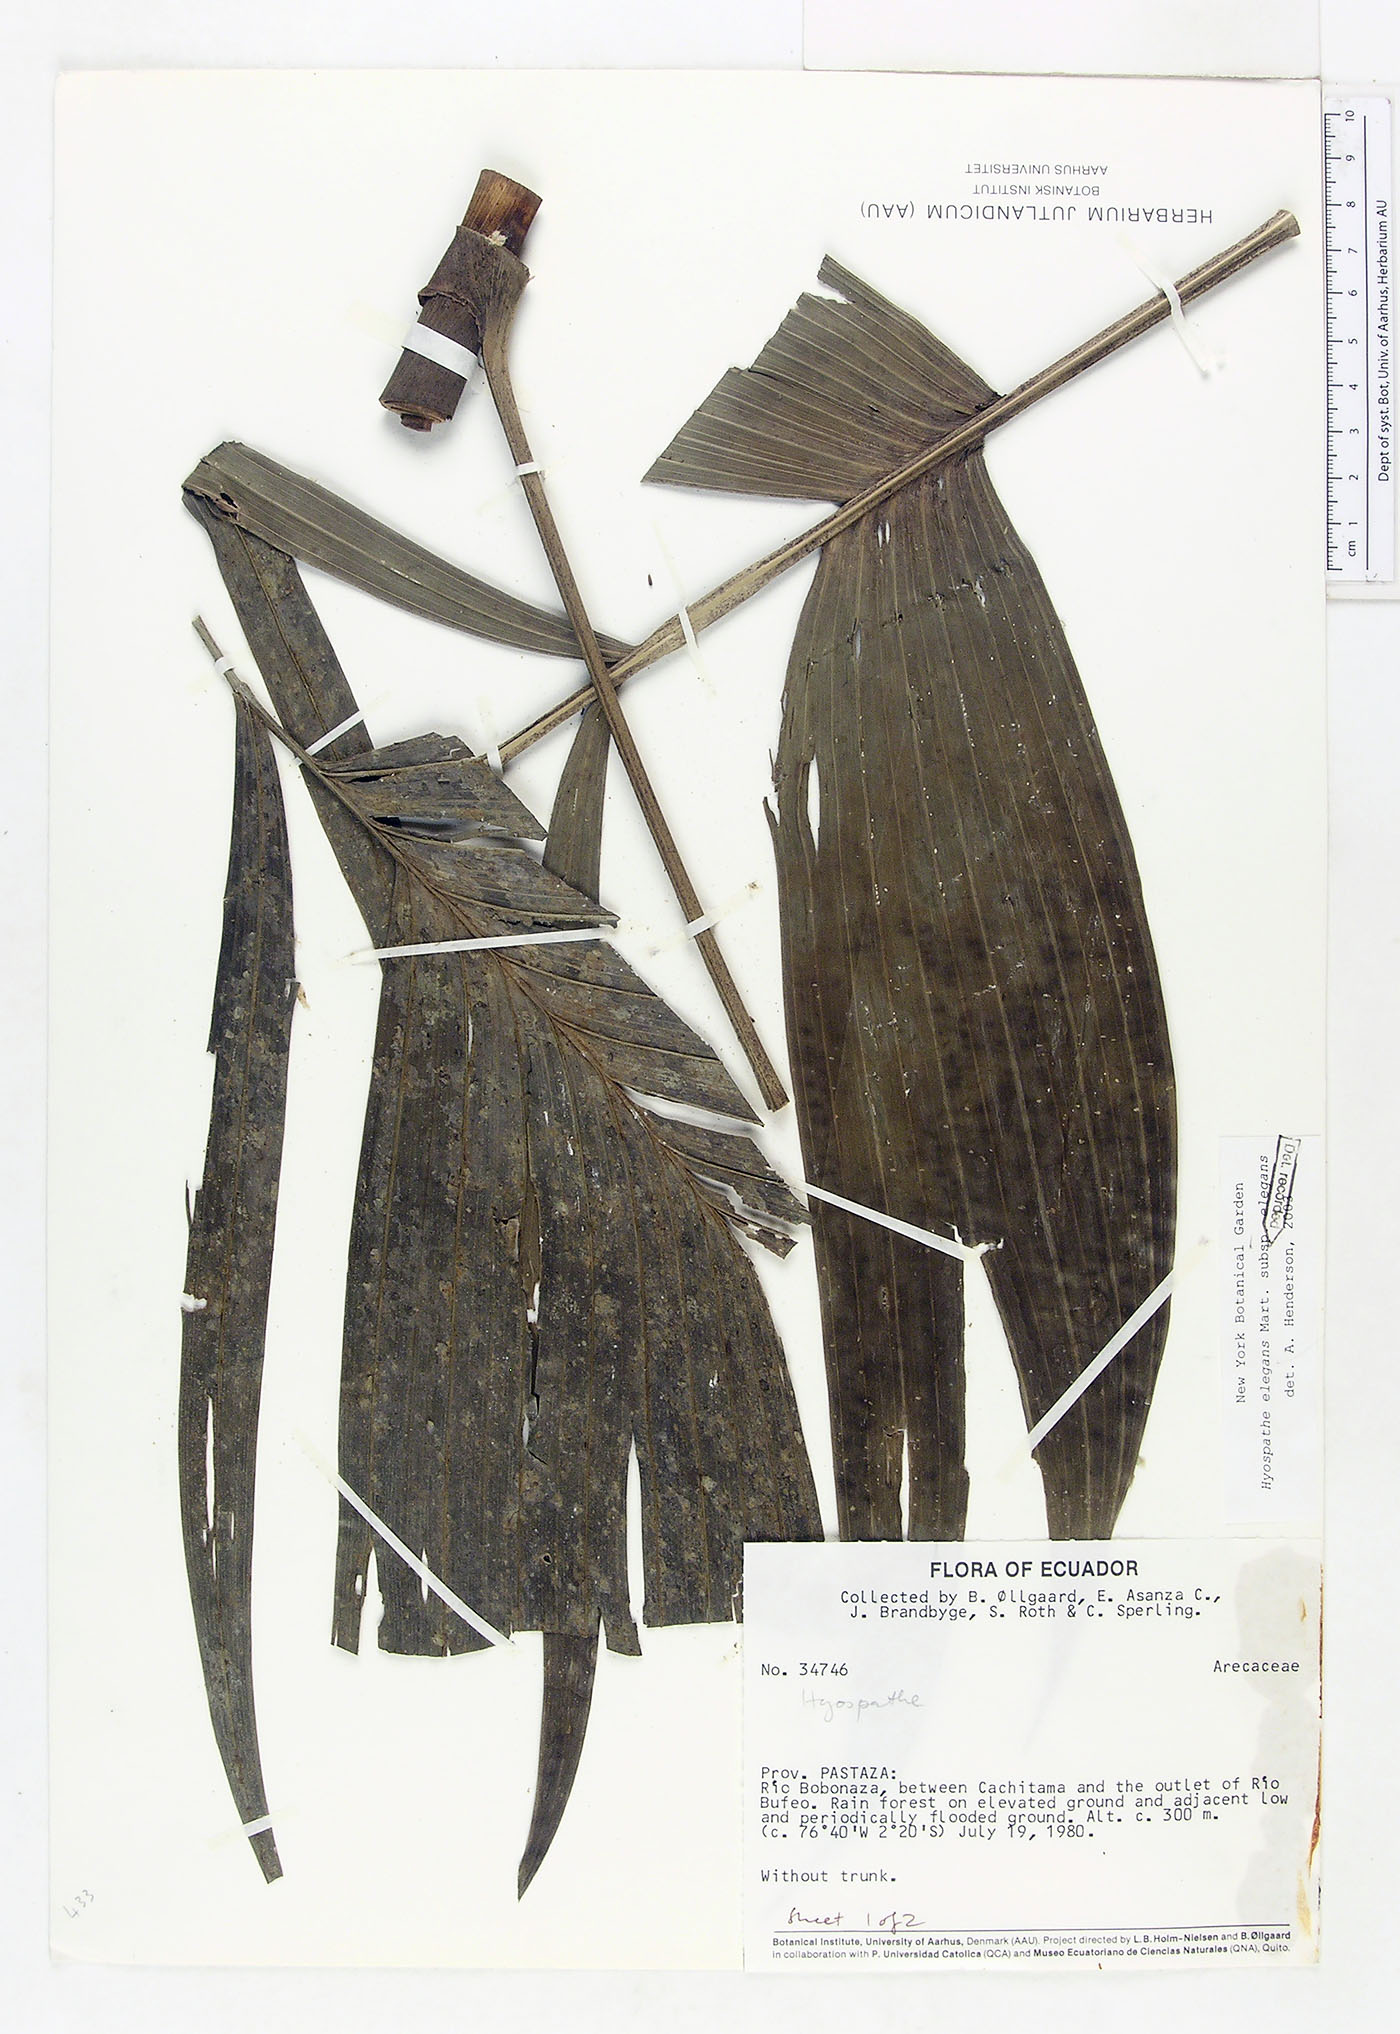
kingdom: Plantae
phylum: Tracheophyta
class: Liliopsida
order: Arecales
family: Arecaceae
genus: Hyospathe
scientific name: Hyospathe elegans
